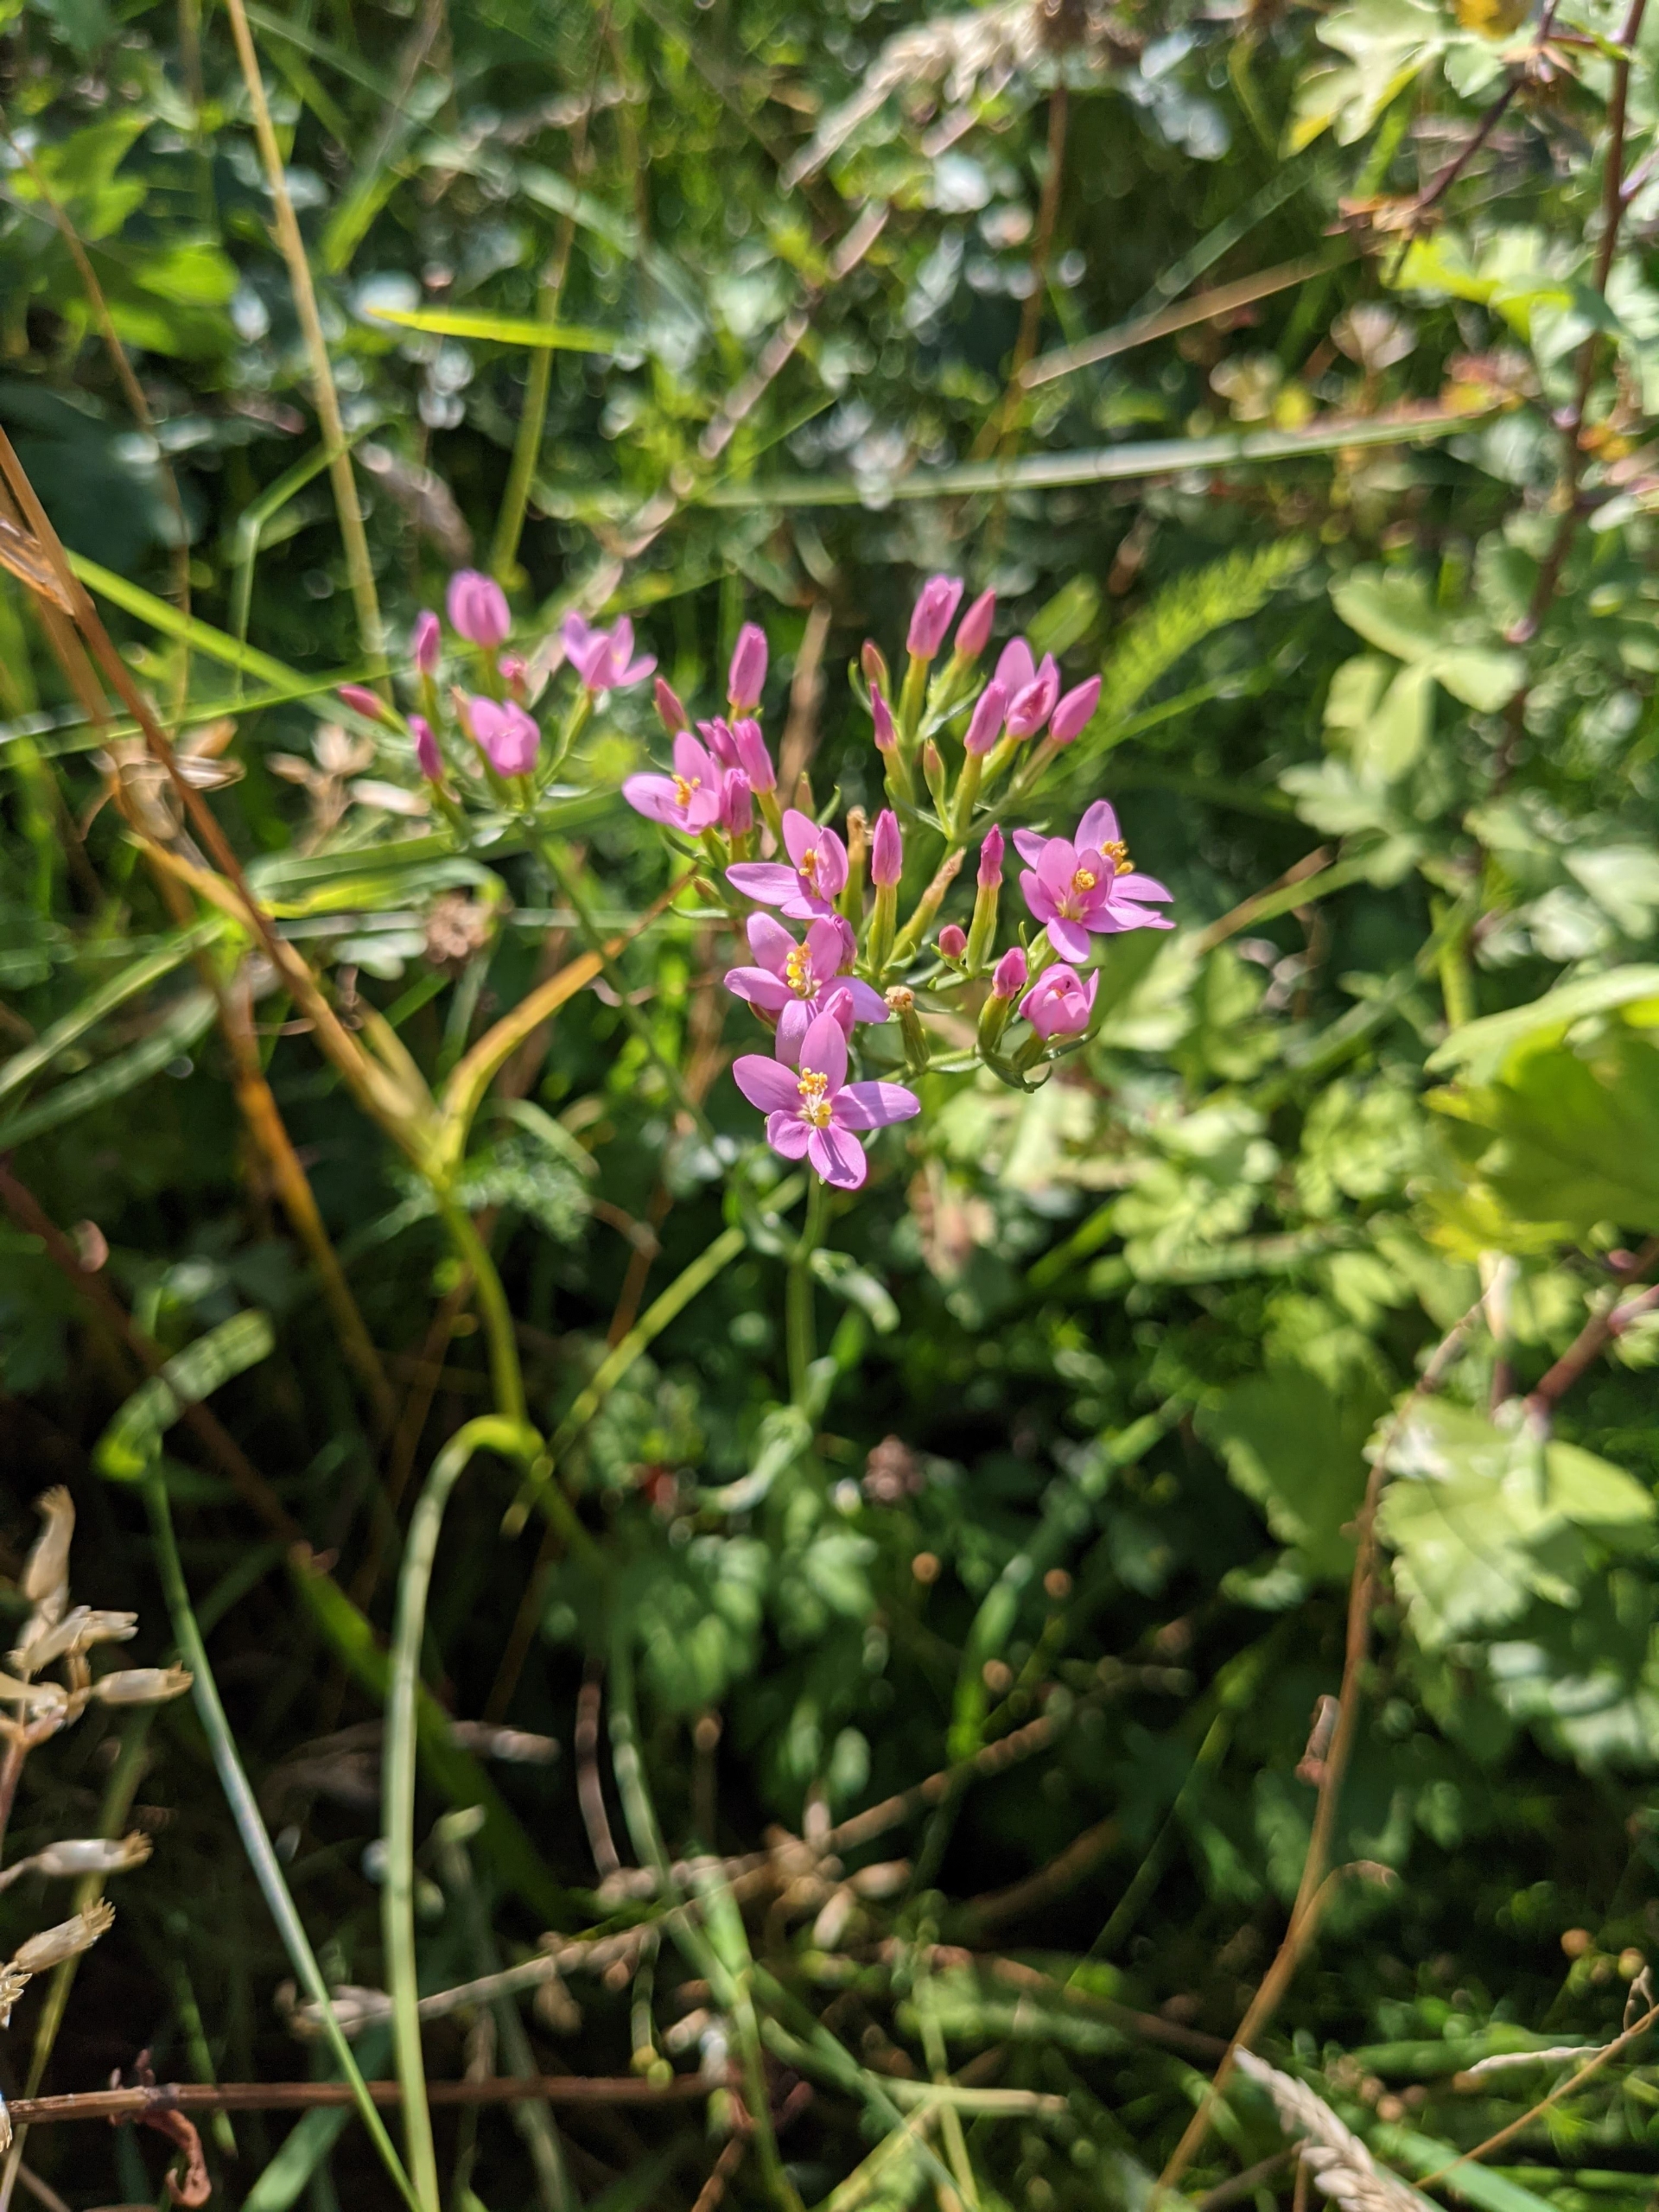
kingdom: Plantae
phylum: Tracheophyta
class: Magnoliopsida
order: Gentianales
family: Gentianaceae
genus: Centaurium
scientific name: Centaurium erythraea
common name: Mark-tusindgylden
